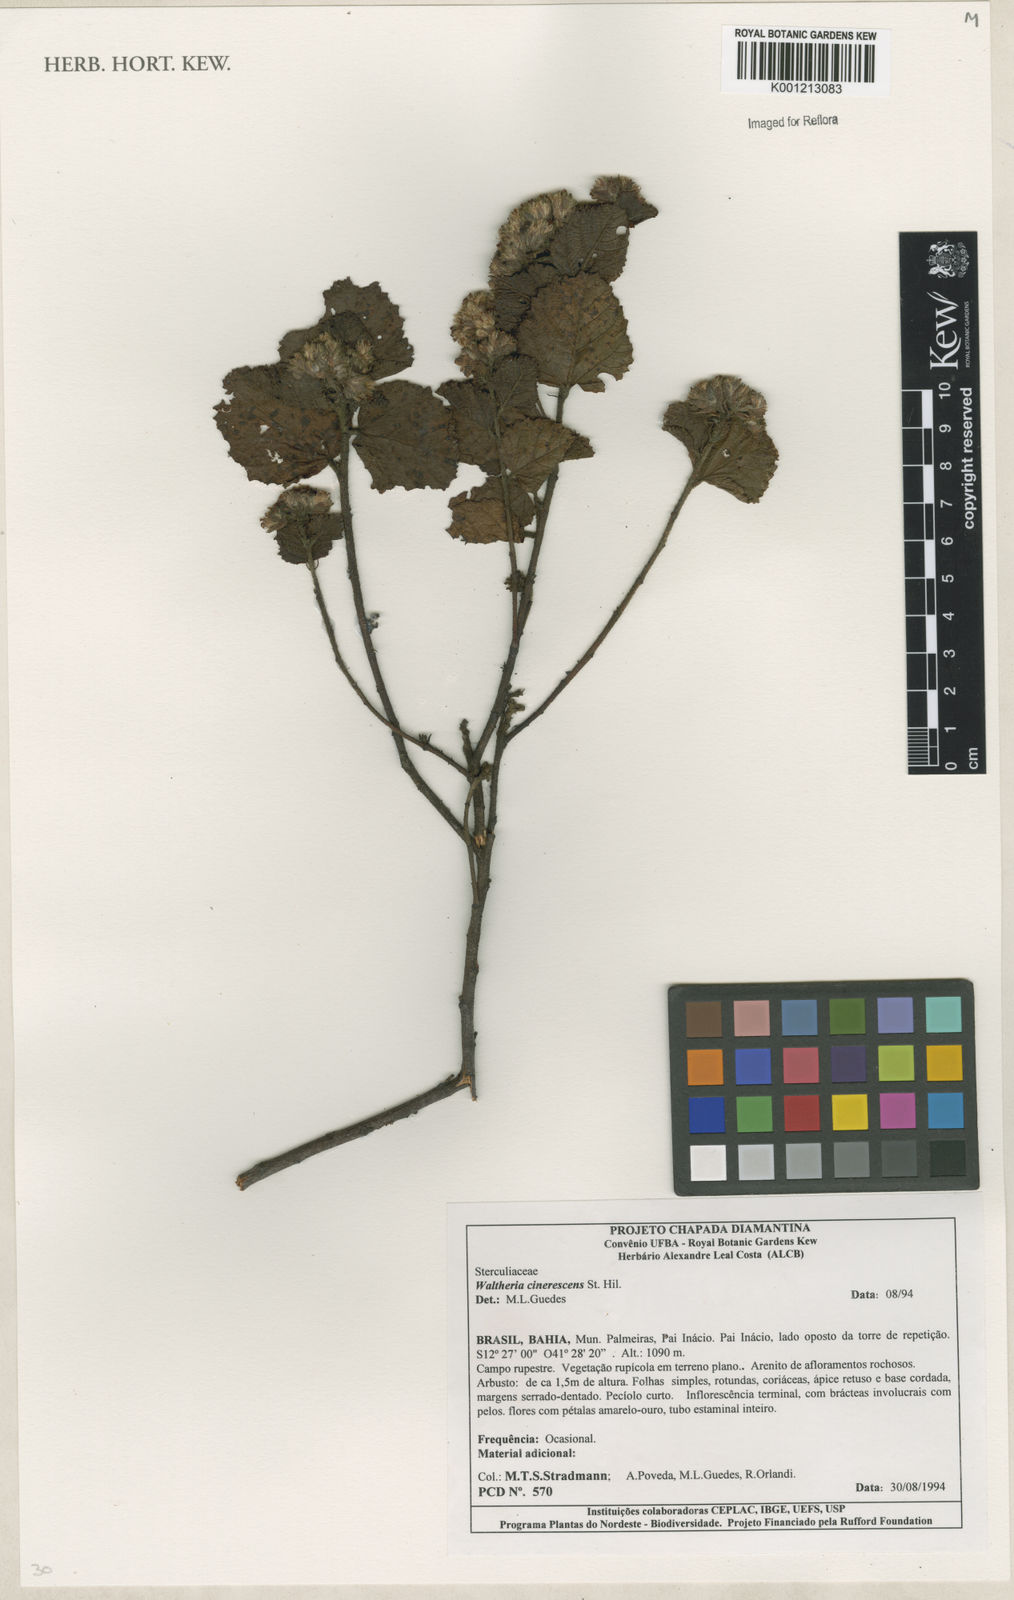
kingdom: Plantae
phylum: Tracheophyta
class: Magnoliopsida
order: Malvales
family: Malvaceae
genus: Waltheria
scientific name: Waltheria cinerescens
